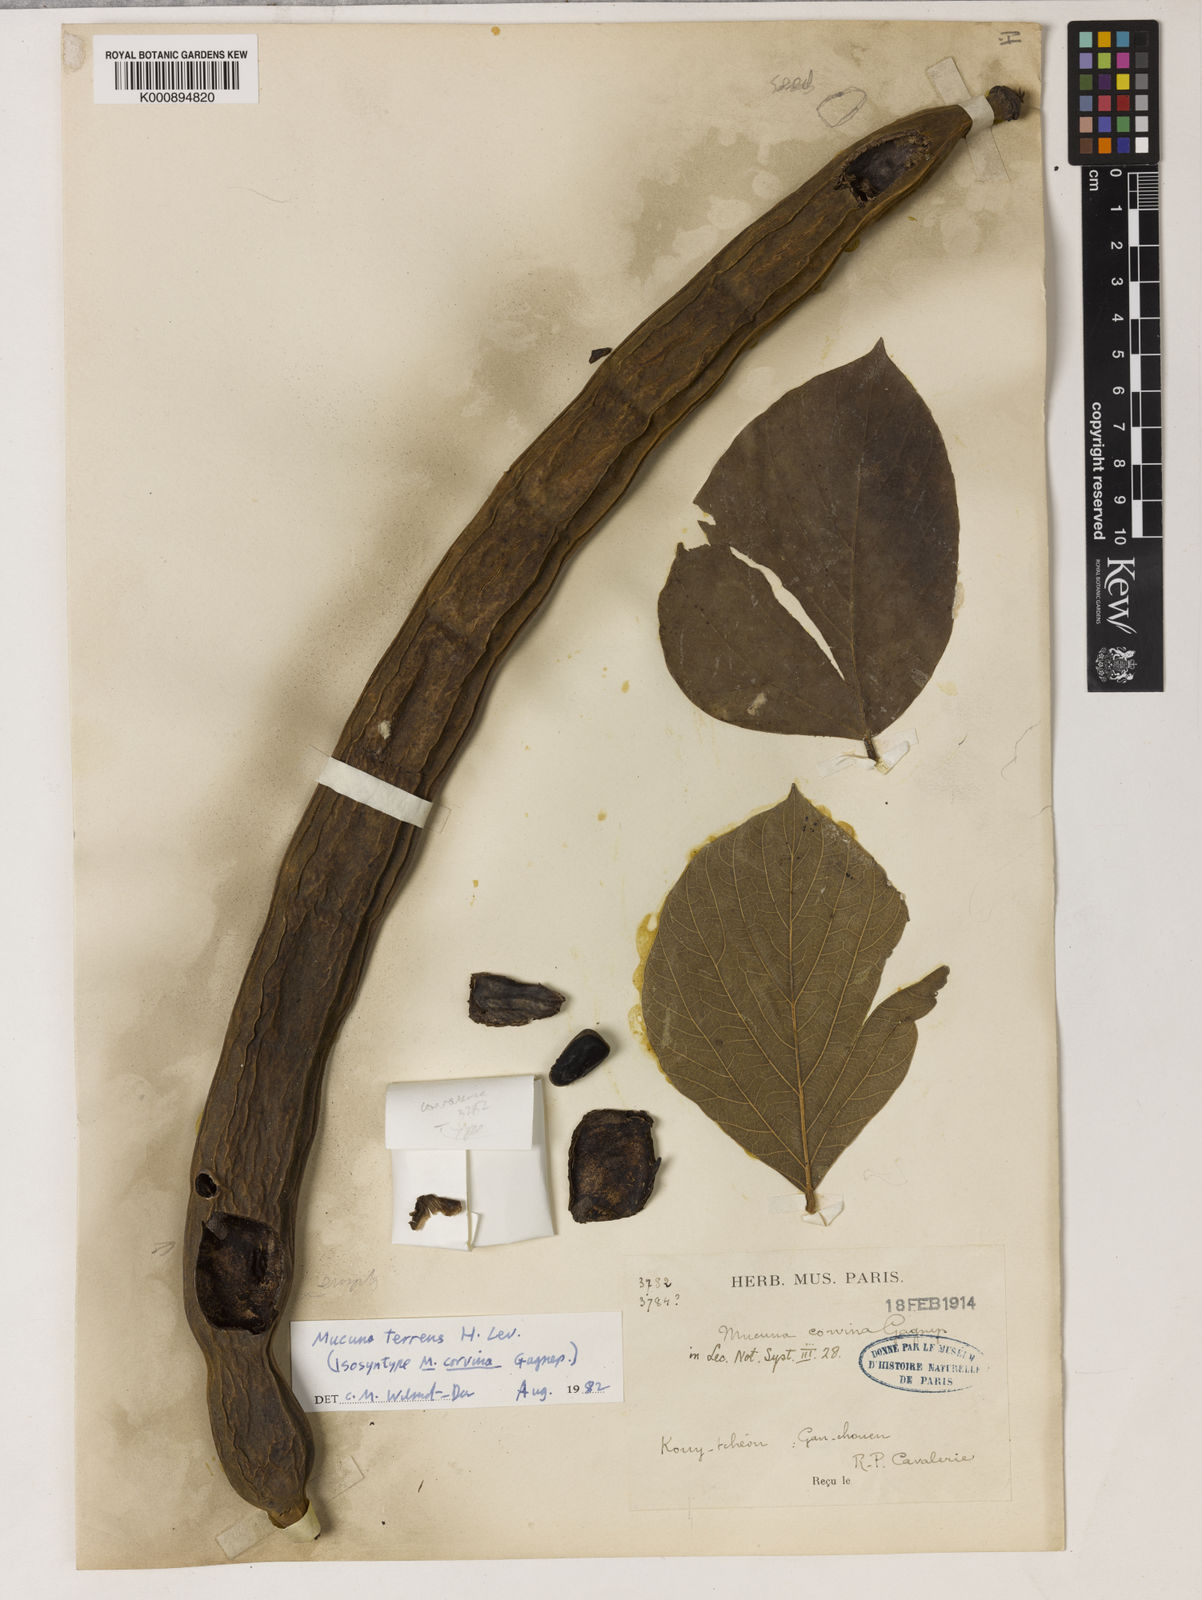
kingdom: Plantae
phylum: Tracheophyta
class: Magnoliopsida
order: Fabales
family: Fabaceae
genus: Mucuna
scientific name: Mucuna
